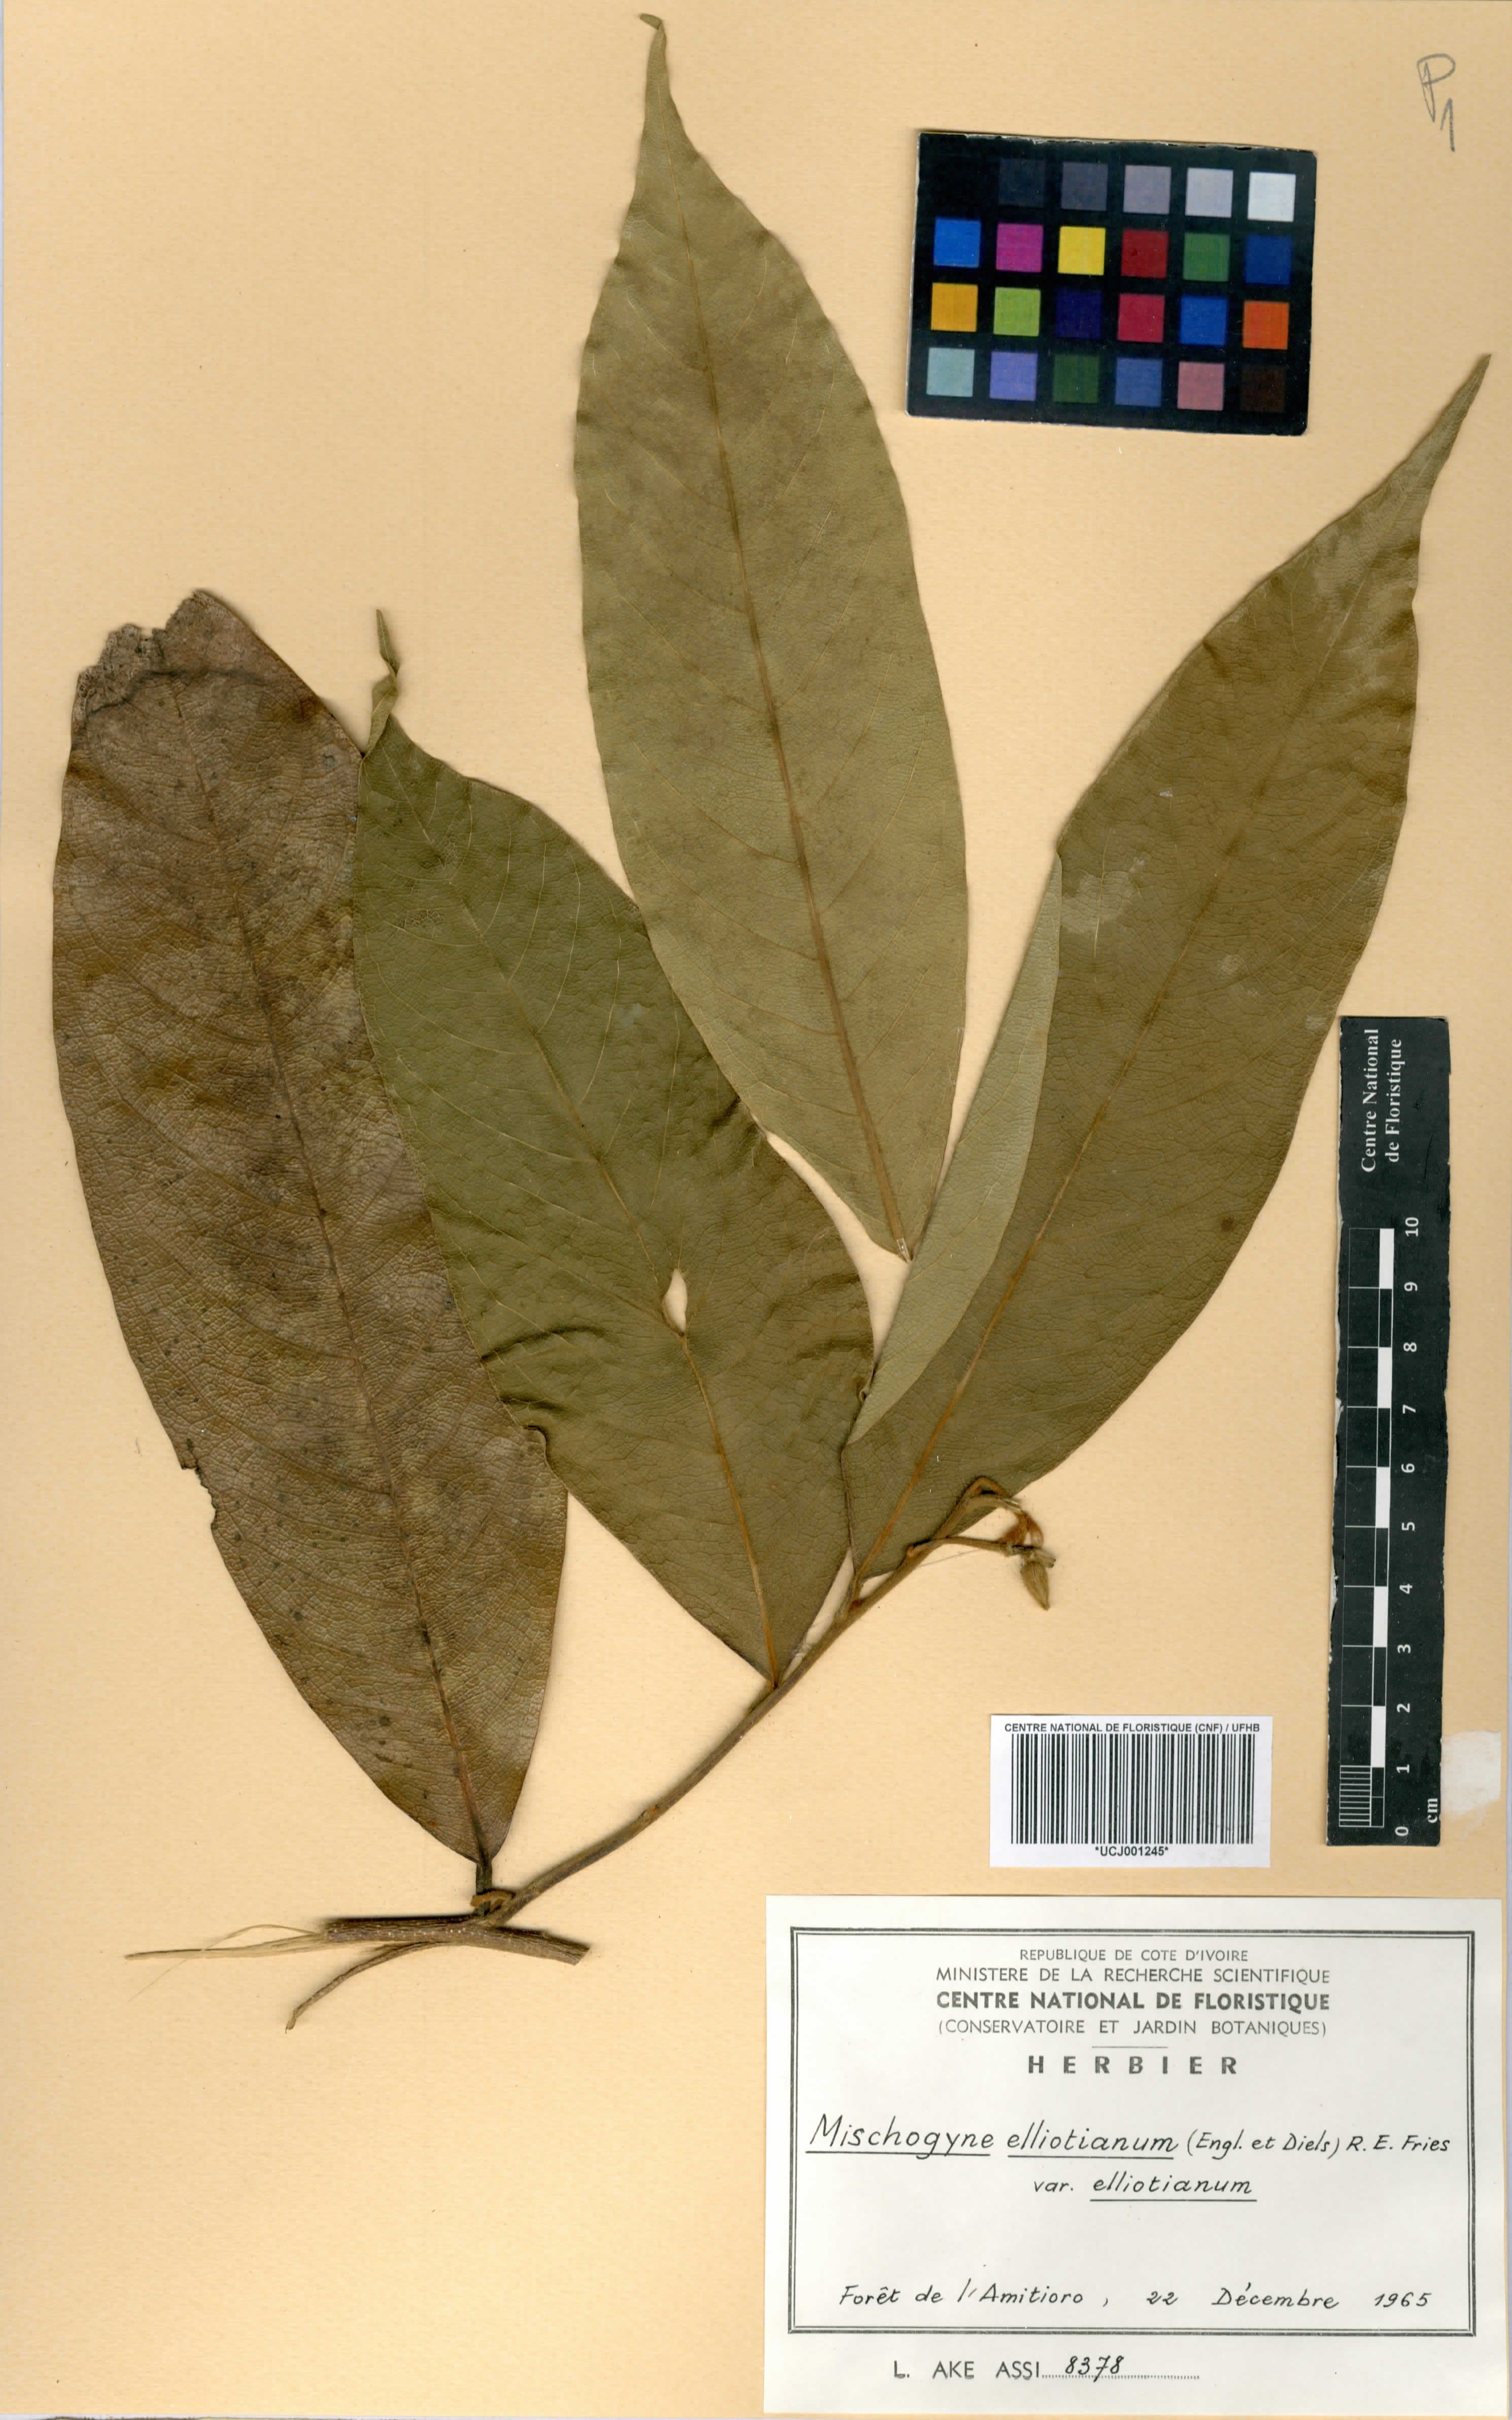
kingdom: Plantae
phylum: Tracheophyta
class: Magnoliopsida
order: Magnoliales
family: Annonaceae
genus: Mischogyne
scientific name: Mischogyne elliotianum
